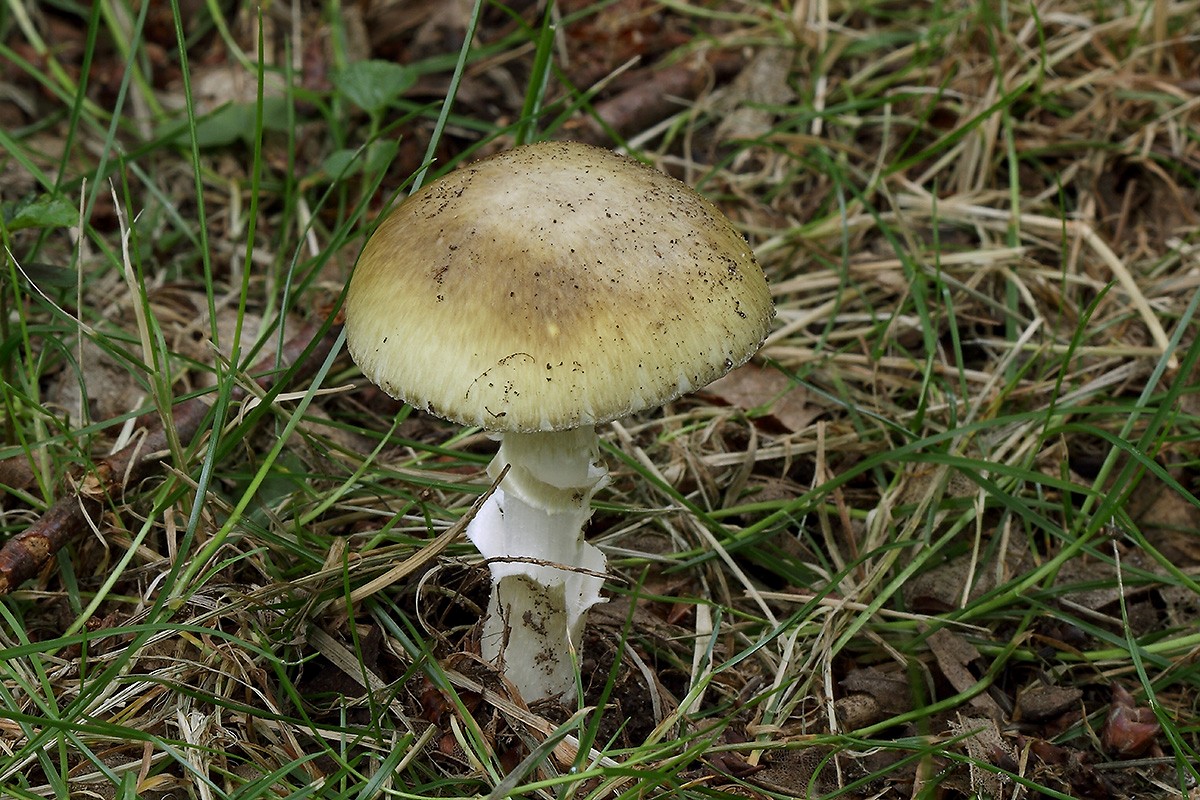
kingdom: Fungi
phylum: Basidiomycota
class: Agaricomycetes
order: Agaricales
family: Amanitaceae
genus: Amanita
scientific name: Amanita phalloides
